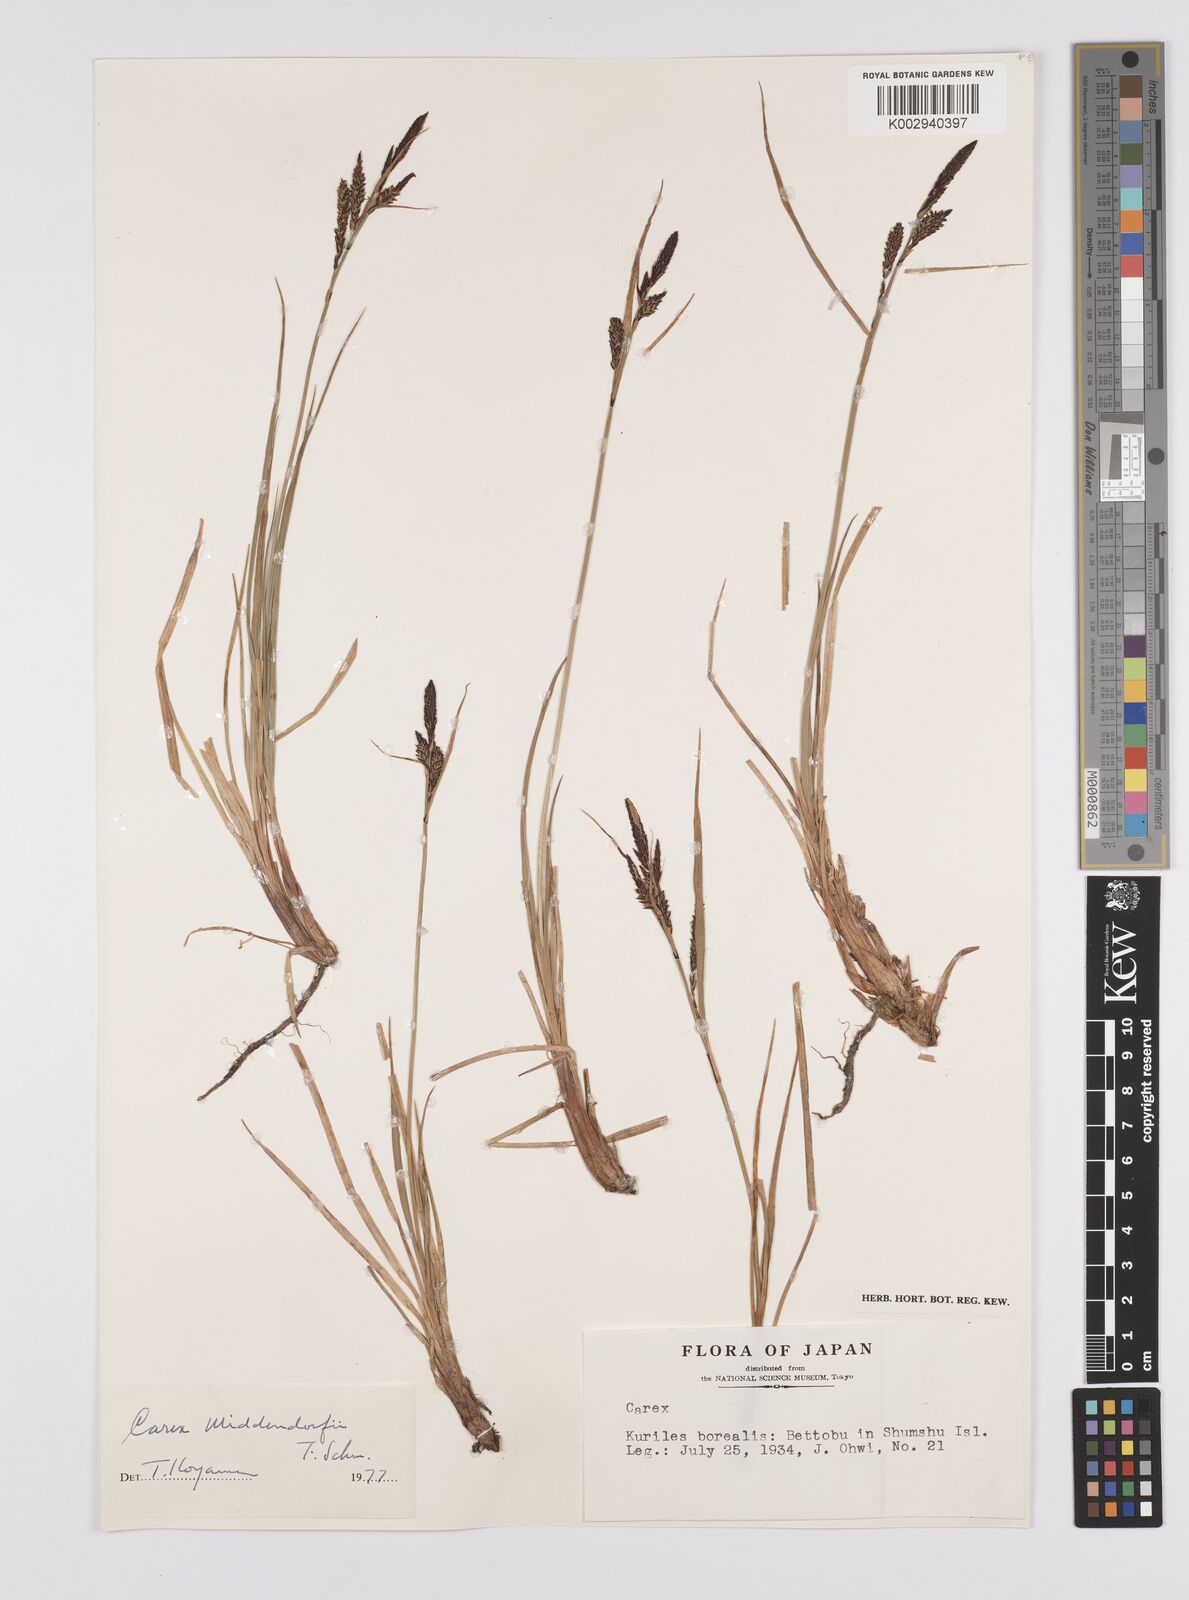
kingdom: Plantae
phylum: Tracheophyta
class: Liliopsida
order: Poales
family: Cyperaceae
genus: Carex
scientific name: Carex middendorffii
